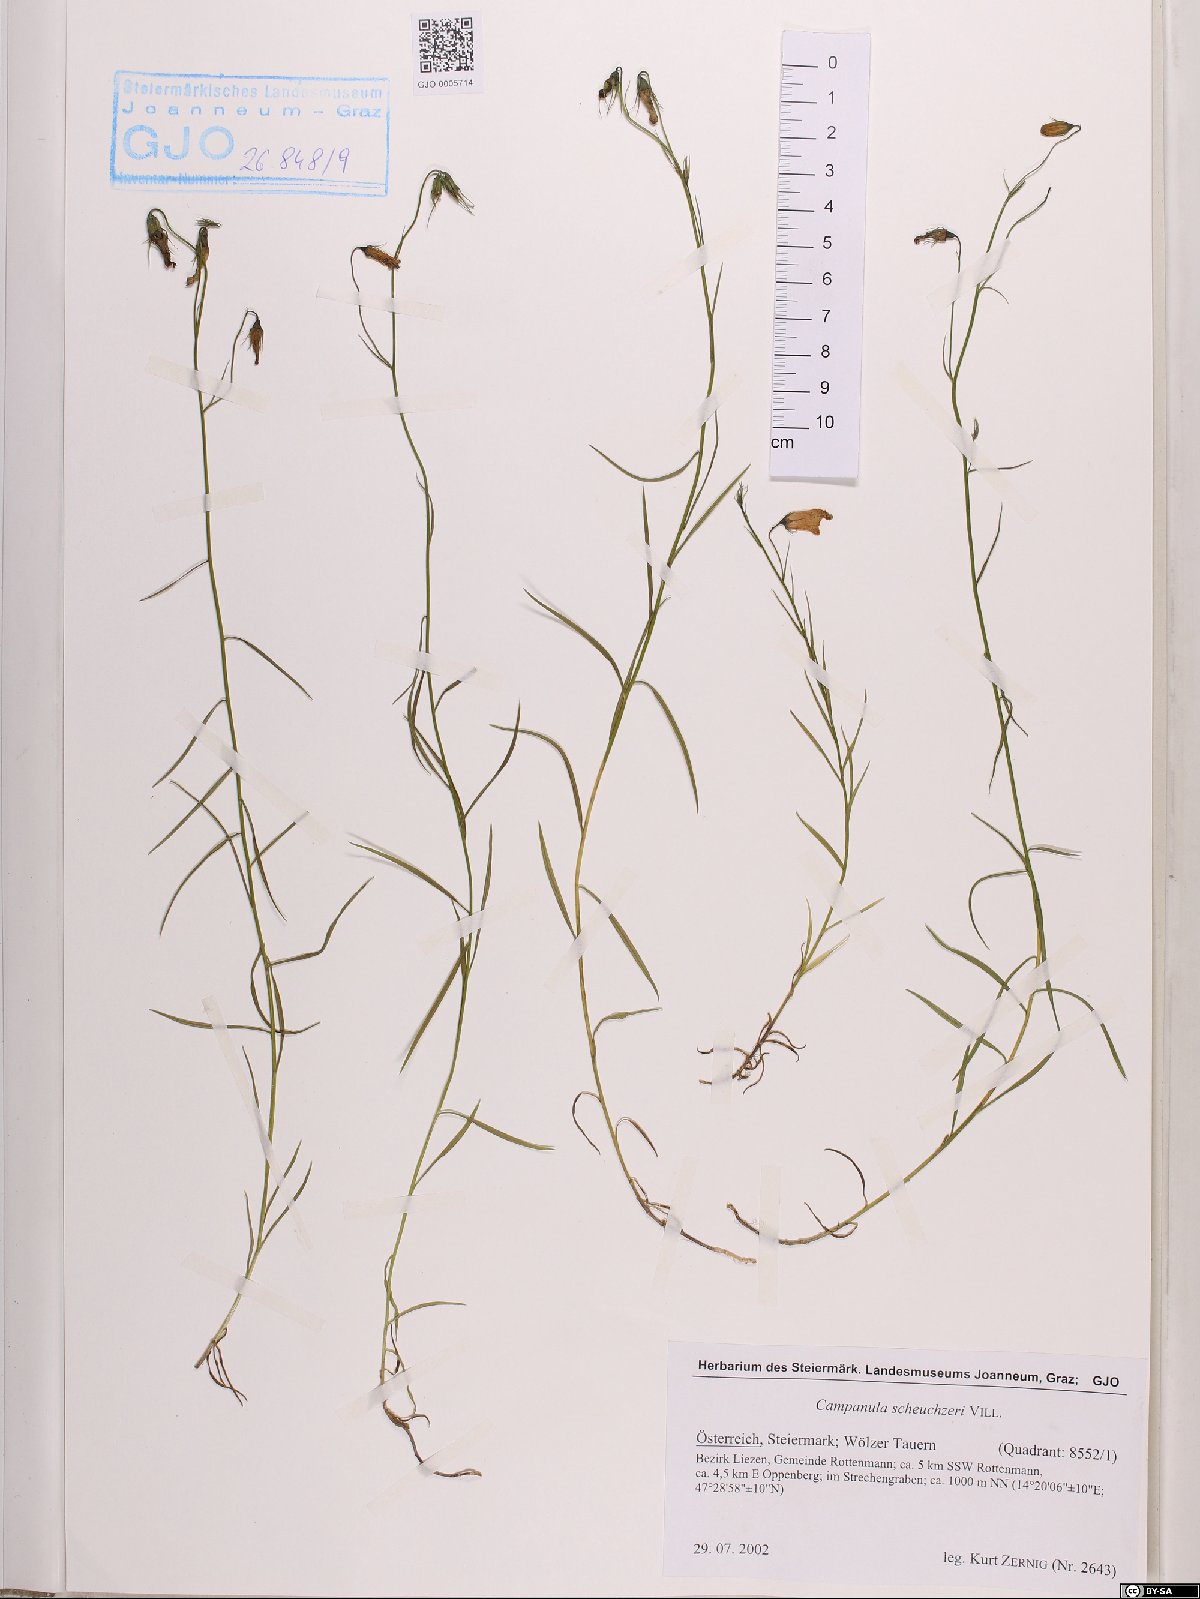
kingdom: Plantae
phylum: Tracheophyta
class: Magnoliopsida
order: Asterales
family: Campanulaceae
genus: Campanula
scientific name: Campanula scheuchzeri
